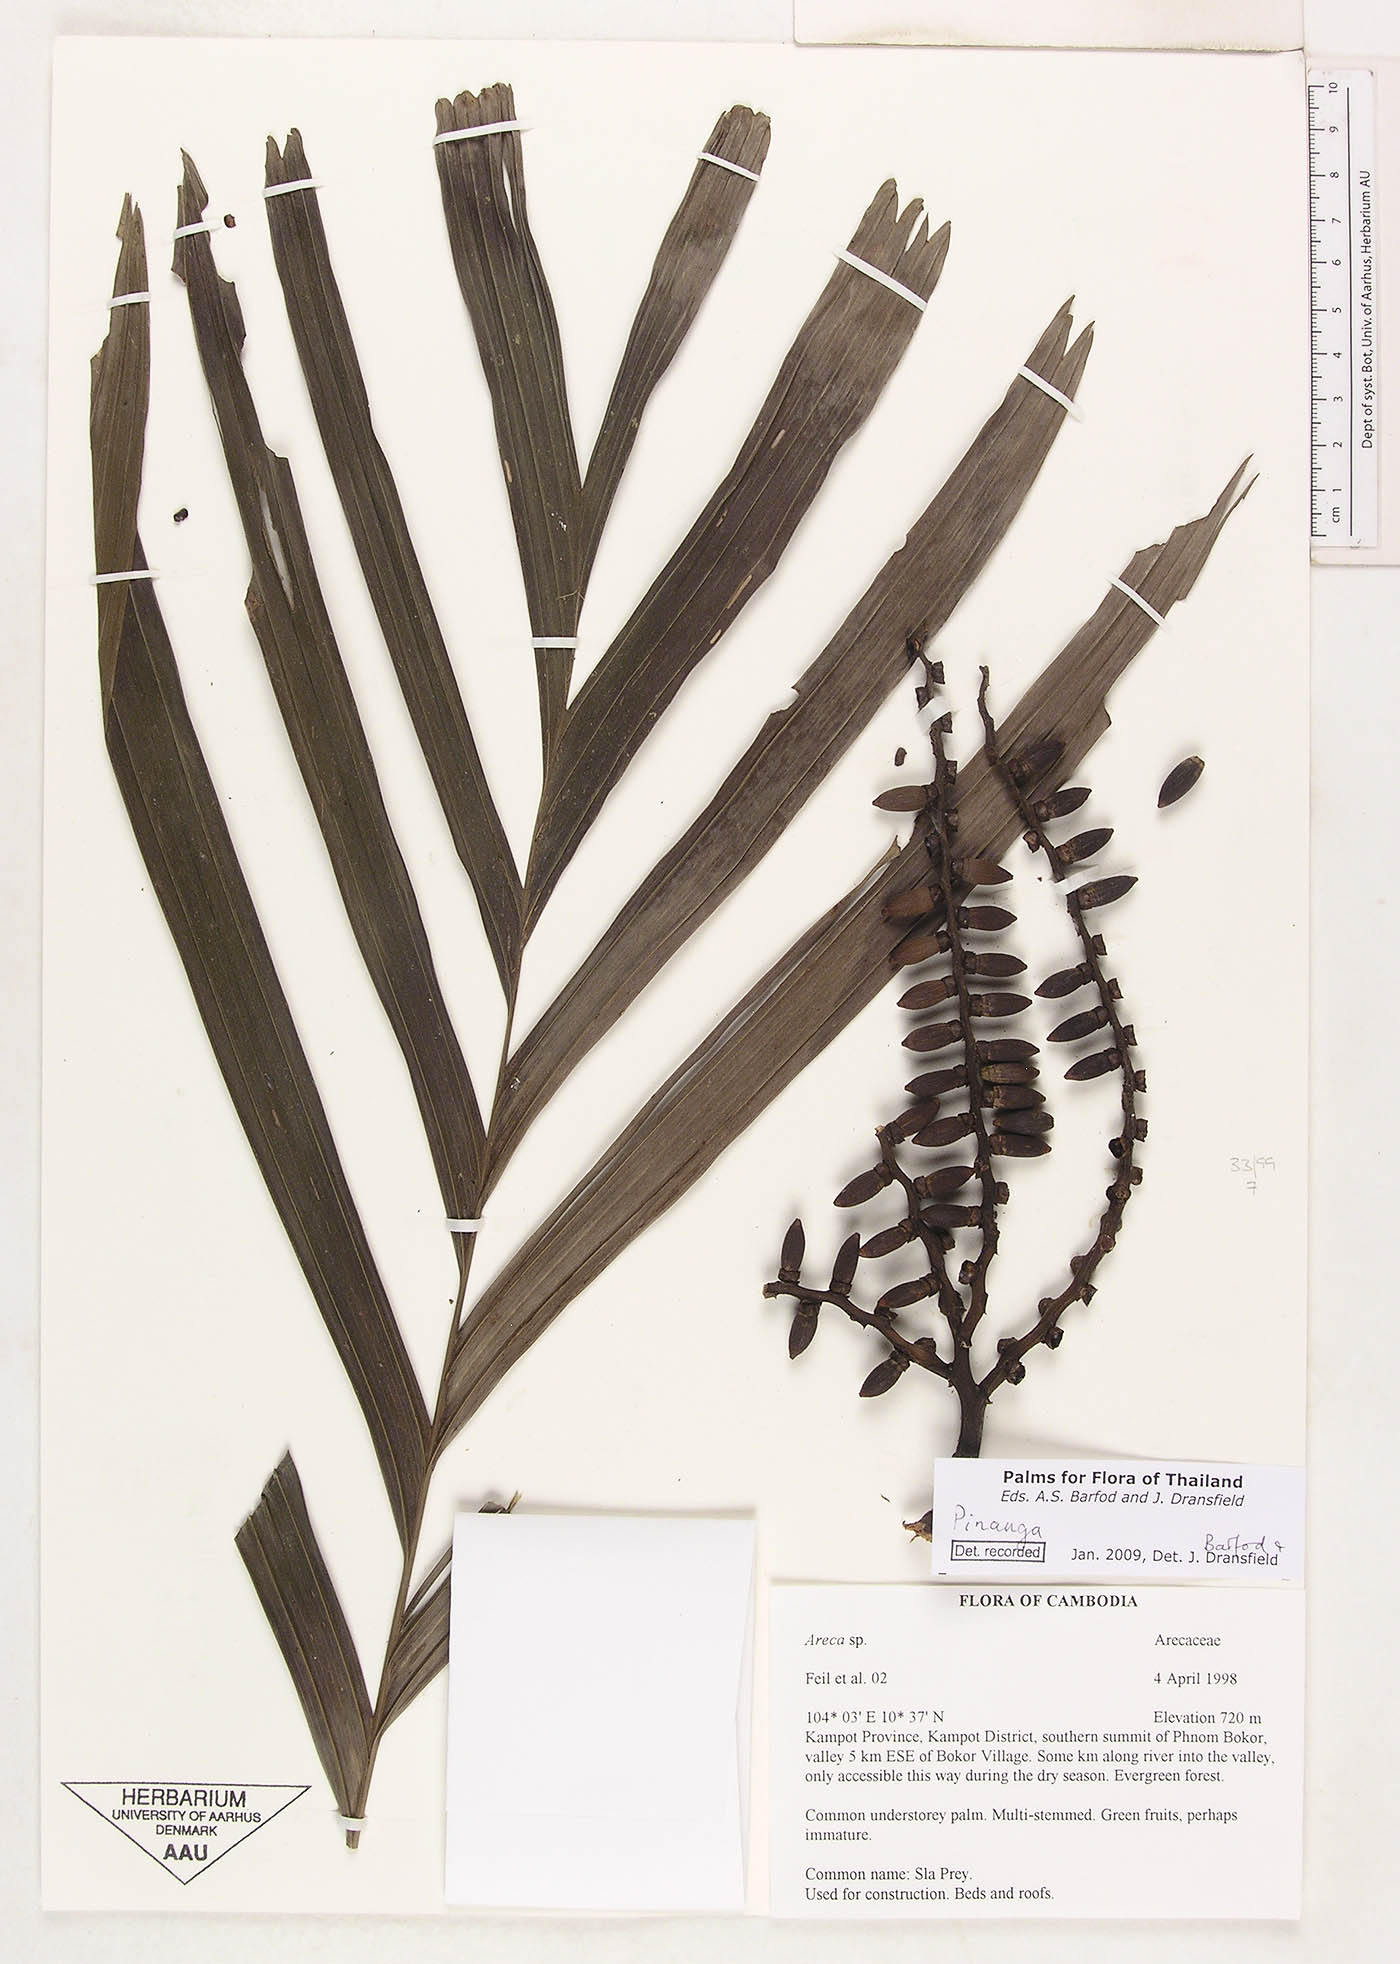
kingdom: Plantae
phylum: Tracheophyta
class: Liliopsida
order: Arecales
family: Arecaceae
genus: Pinanga
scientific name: Pinanga
